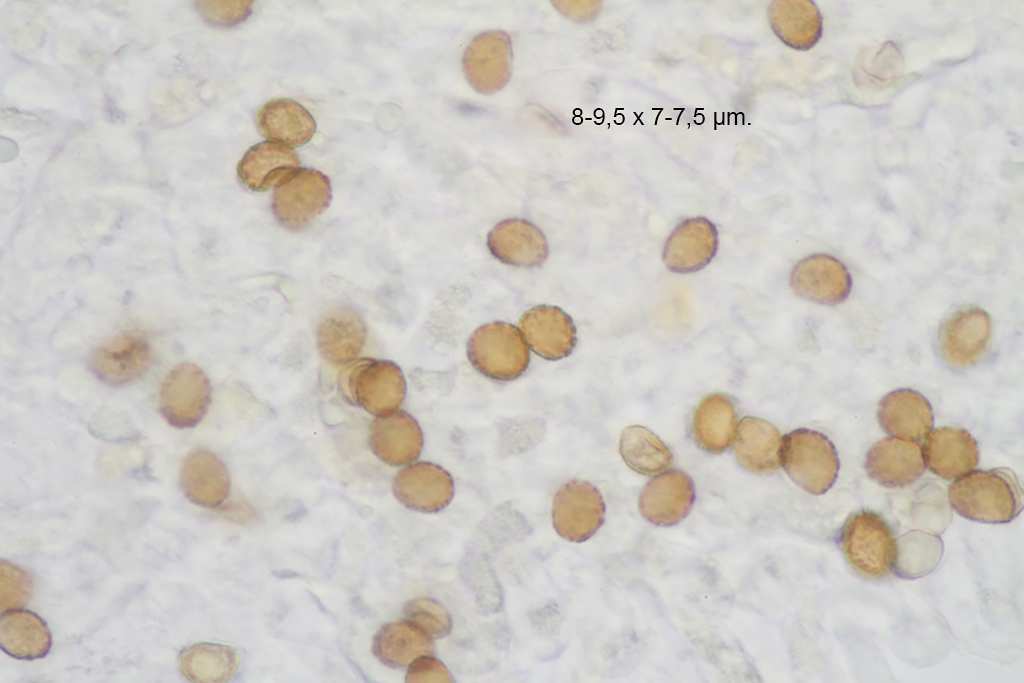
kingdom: Fungi
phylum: Basidiomycota
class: Agaricomycetes
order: Agaricales
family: Cortinariaceae
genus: Phlegmacium
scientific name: Phlegmacium caesiocortinatum
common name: rundsporet slørhat
